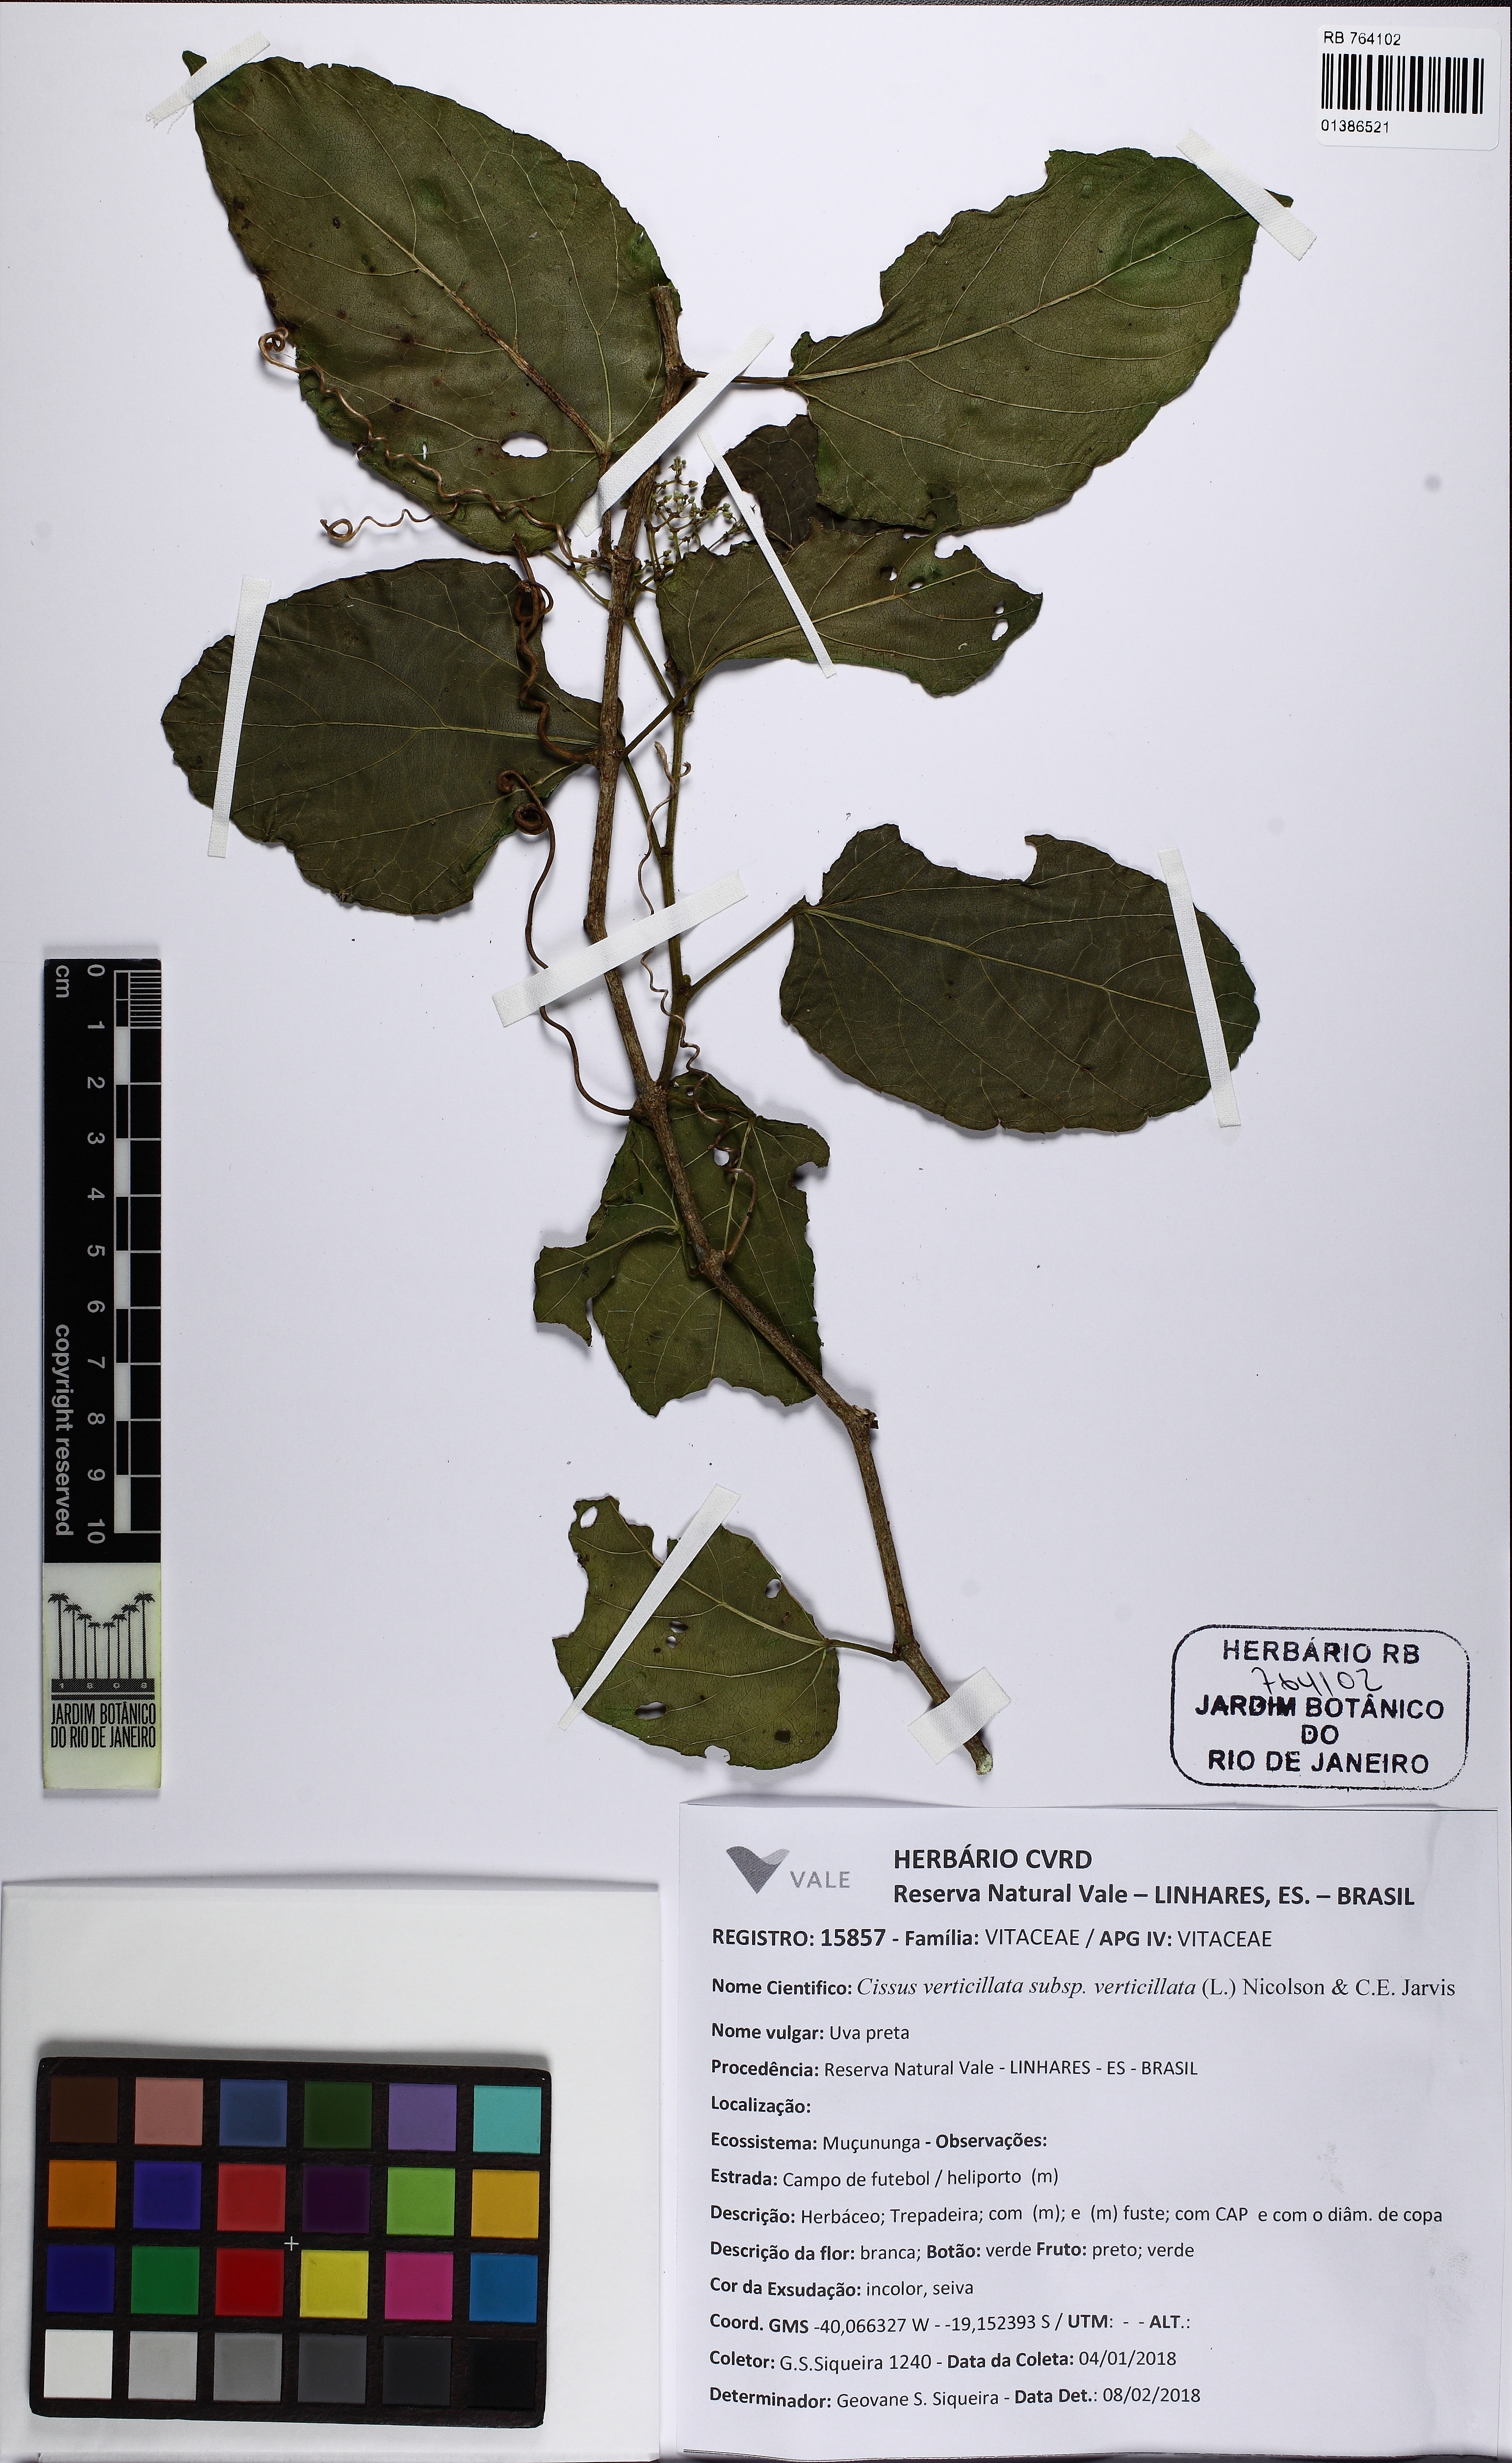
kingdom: Plantae
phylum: Tracheophyta
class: Magnoliopsida
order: Vitales
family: Vitaceae
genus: Cissus
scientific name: Cissus verticillata
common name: Princess vine
